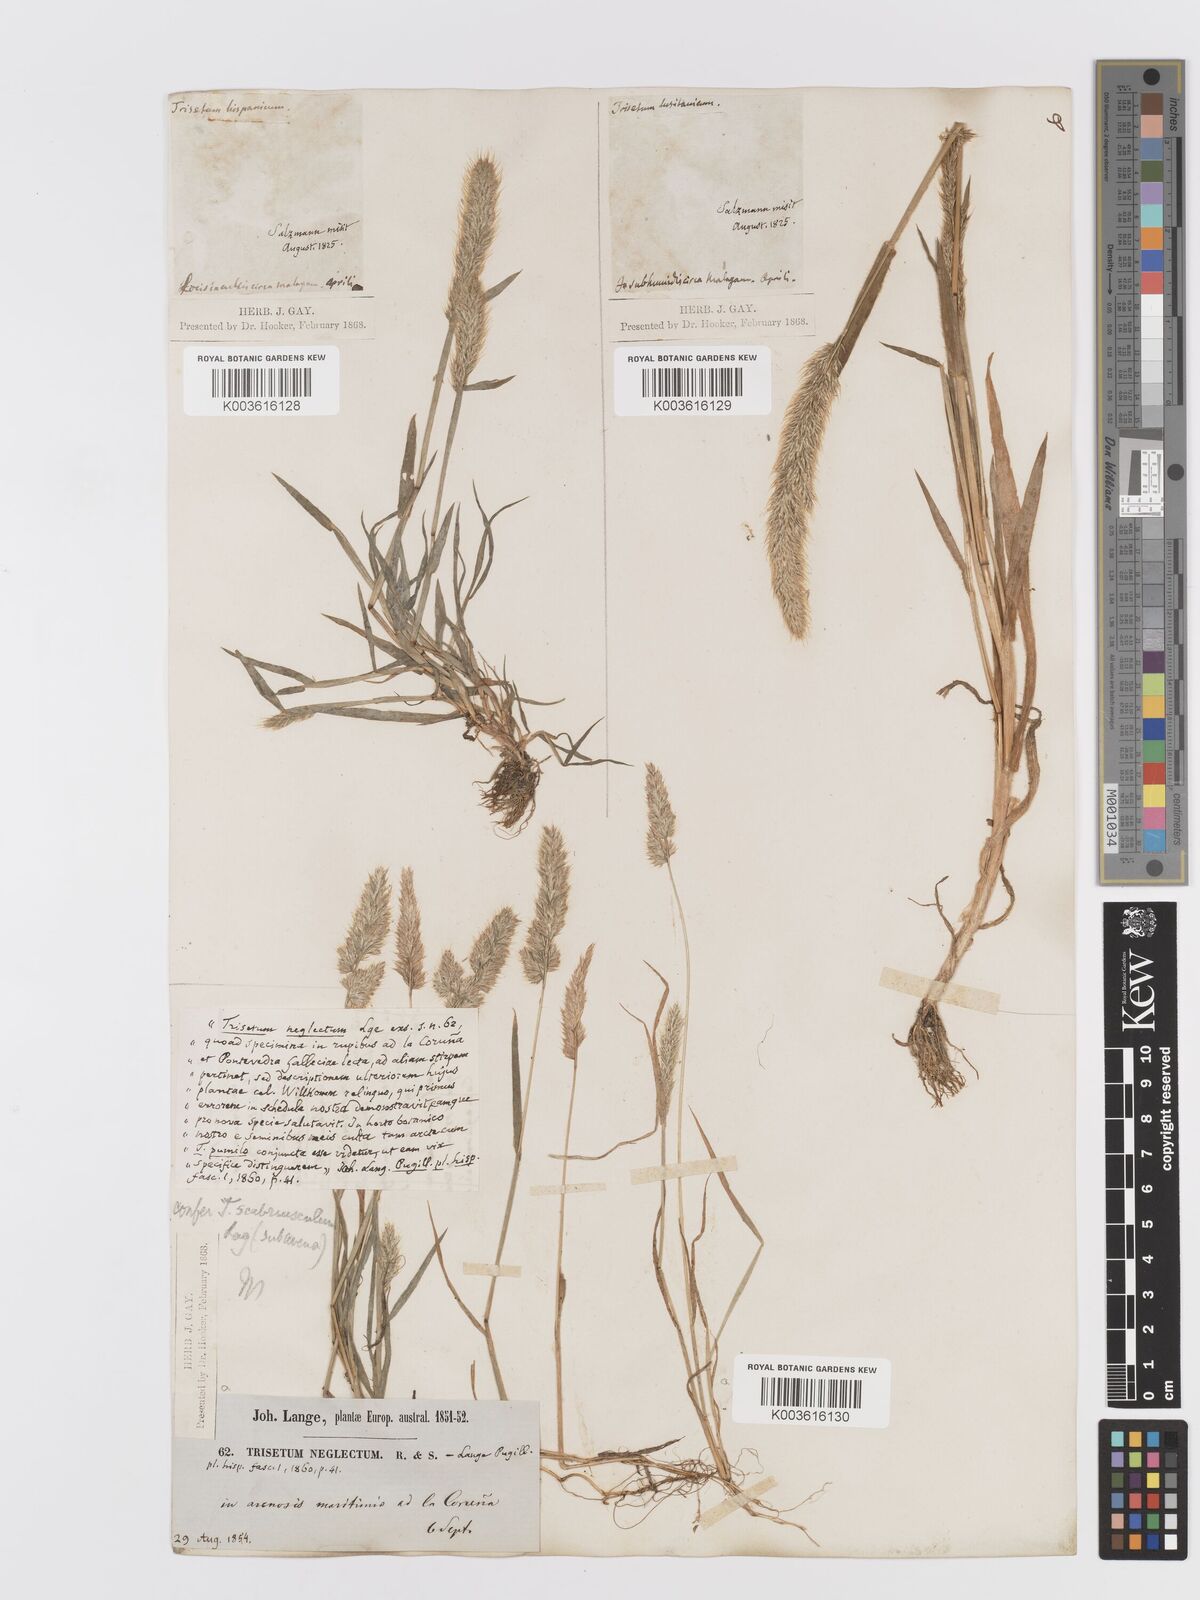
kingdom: Plantae
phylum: Tracheophyta
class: Liliopsida
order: Poales
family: Poaceae
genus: Trisetaria
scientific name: Trisetaria panicea
